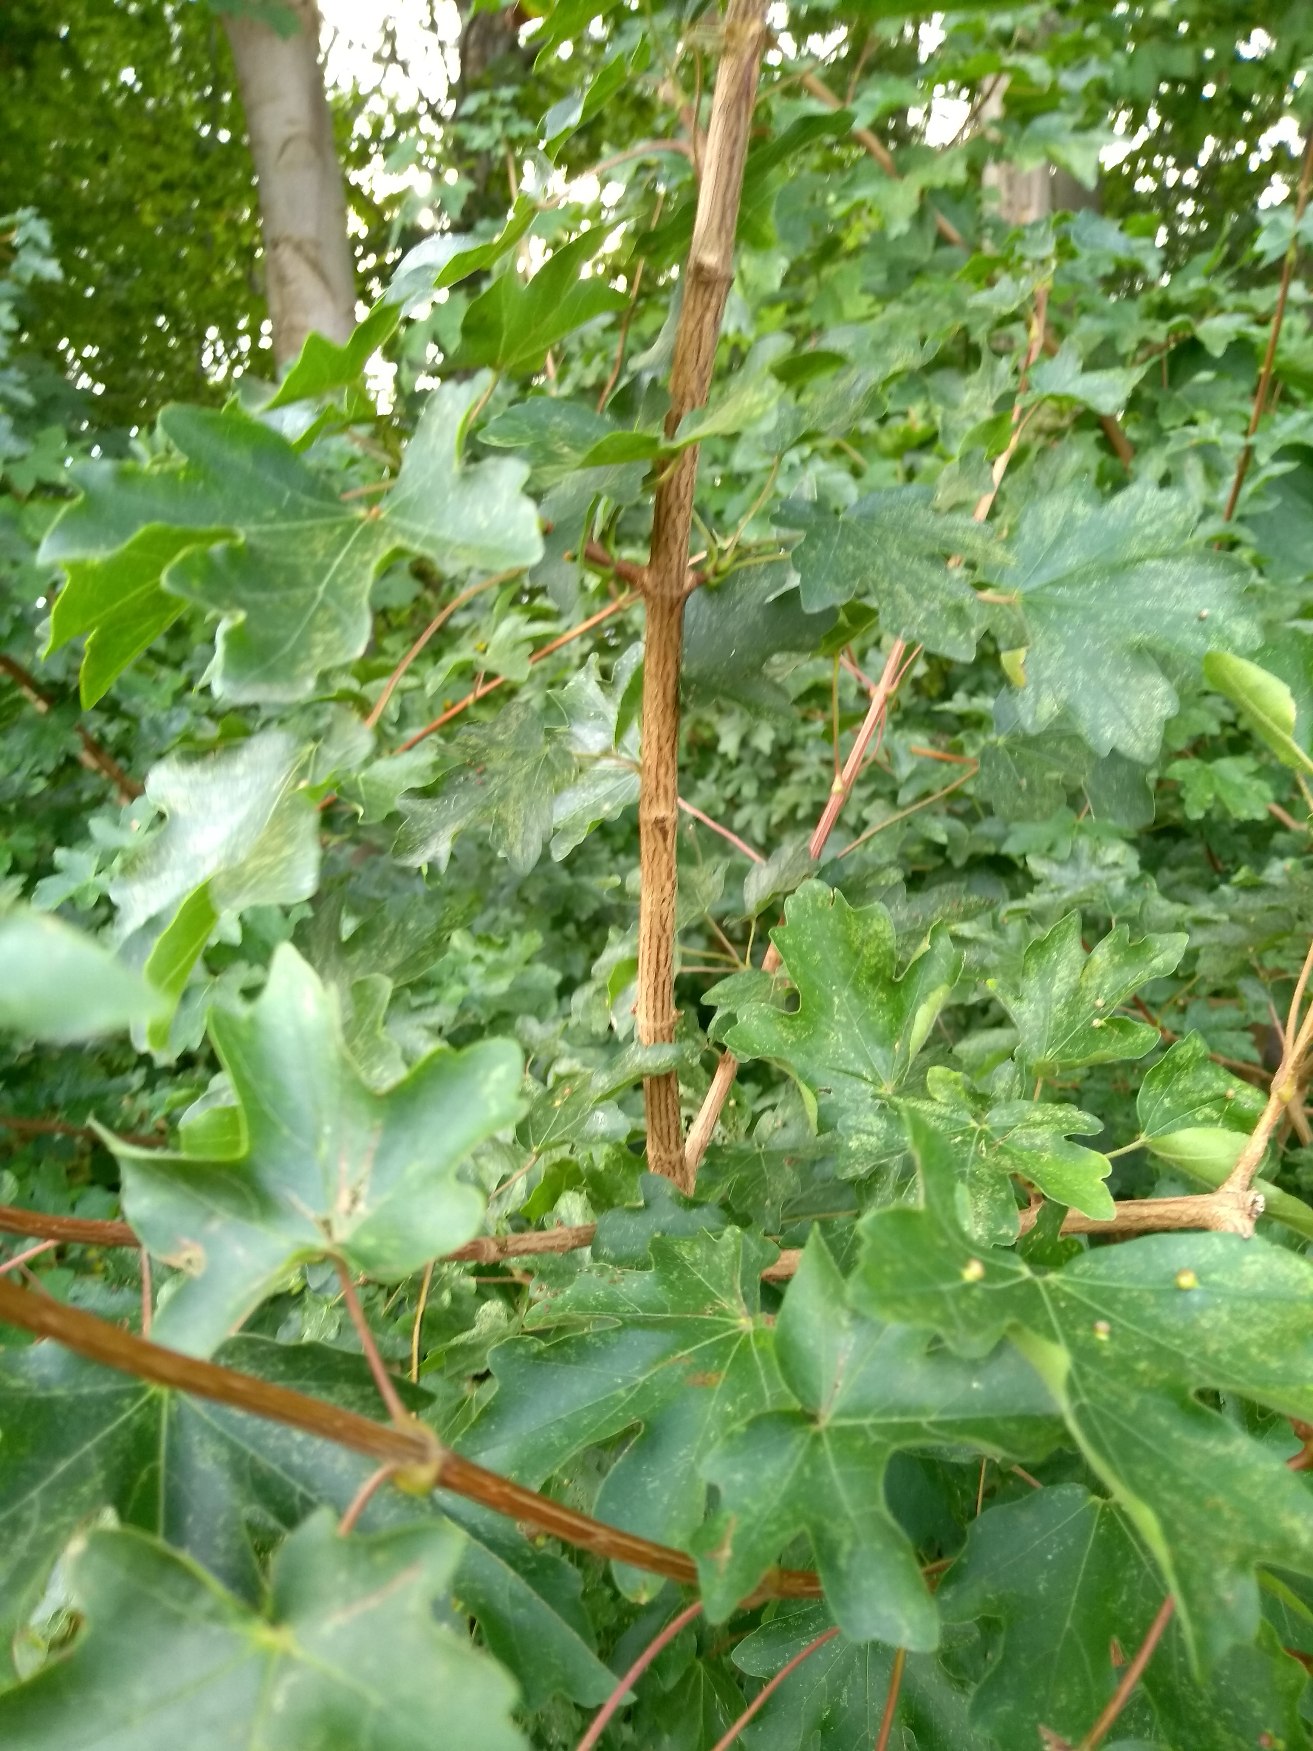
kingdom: Plantae
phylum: Tracheophyta
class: Magnoliopsida
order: Sapindales
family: Sapindaceae
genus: Acer
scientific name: Acer campestre
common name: Navr
